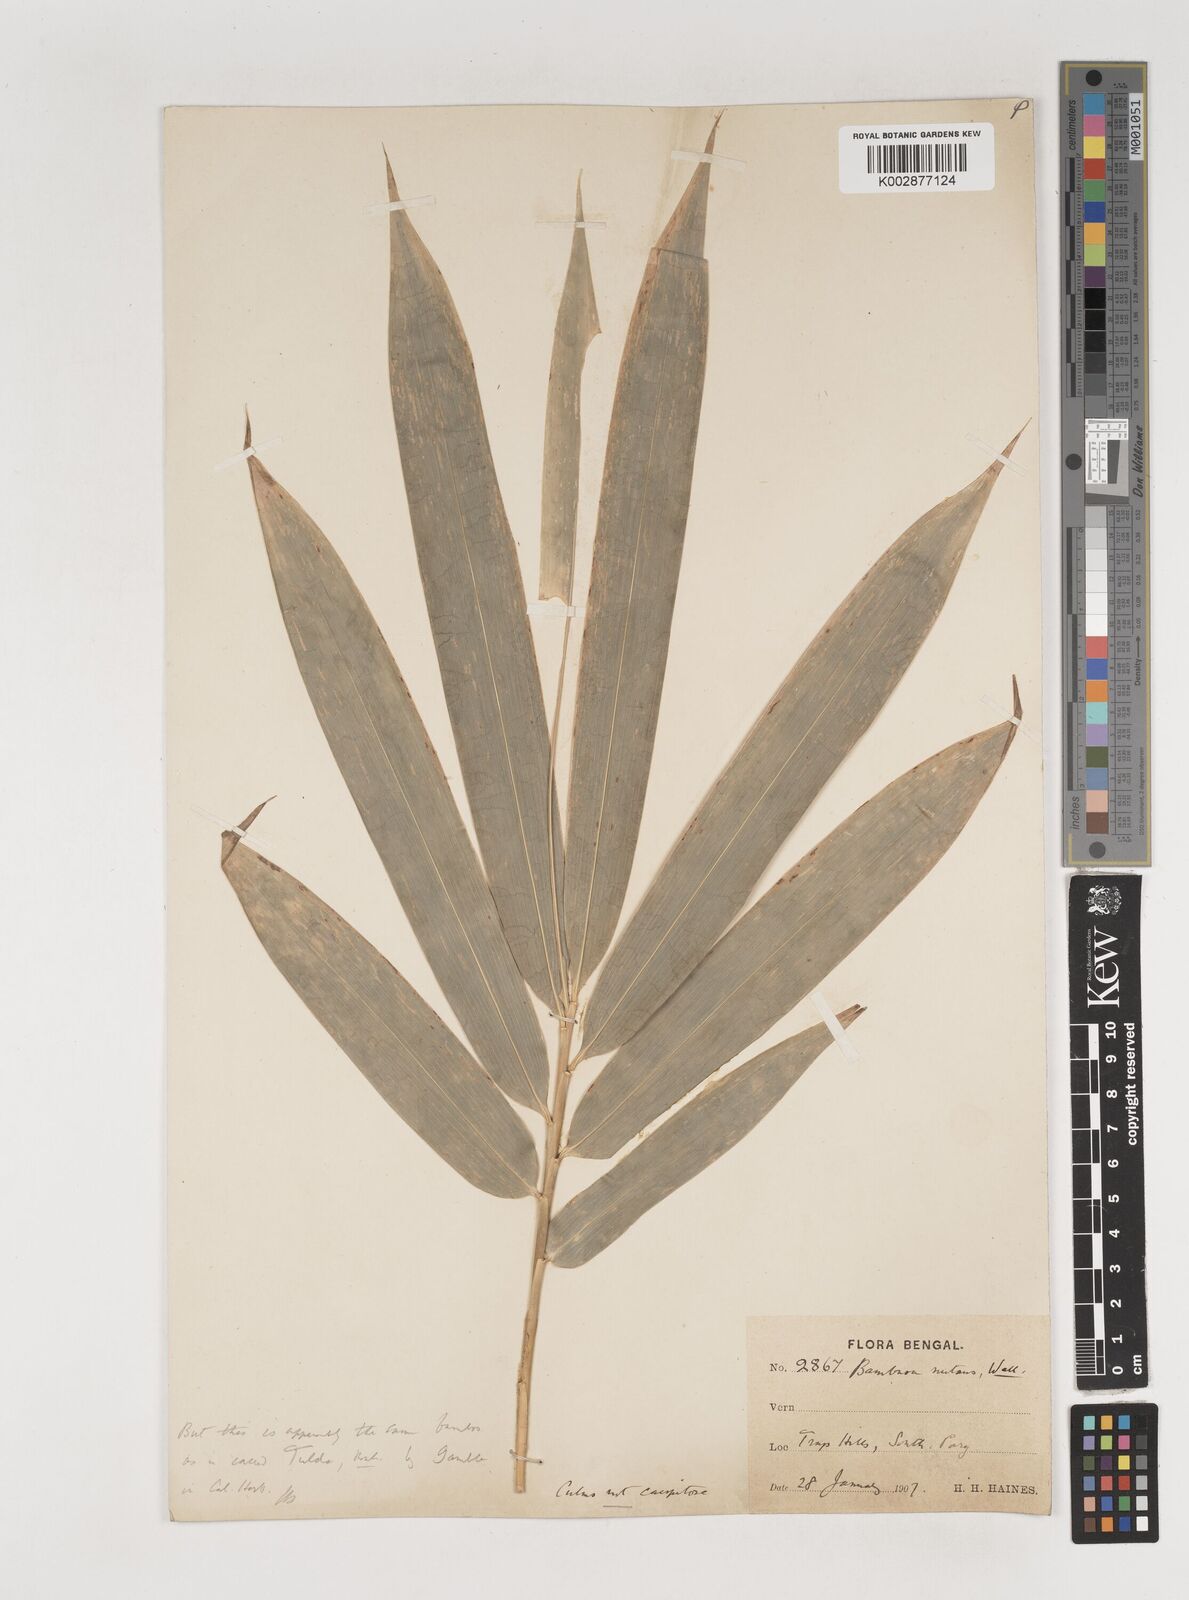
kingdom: Plantae
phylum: Tracheophyta
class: Liliopsida
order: Poales
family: Poaceae
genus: Bambusa
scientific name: Bambusa
